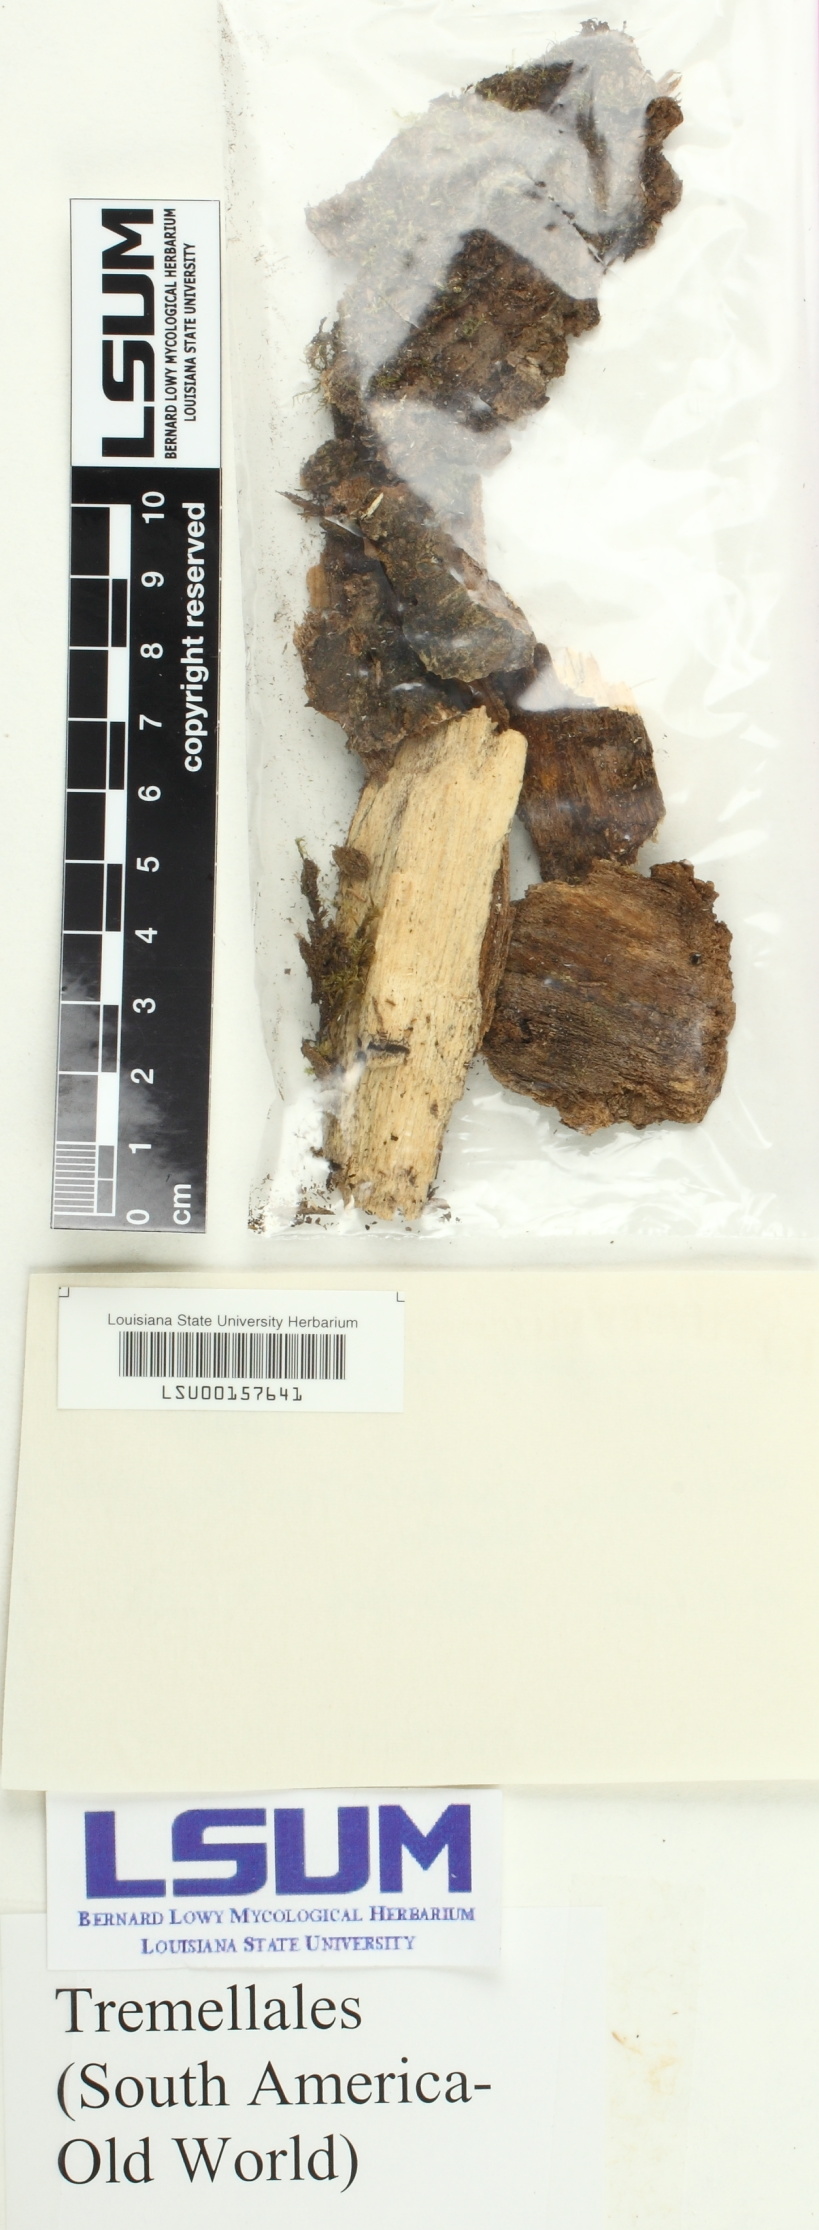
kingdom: Fungi
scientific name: Fungi
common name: Fungi
